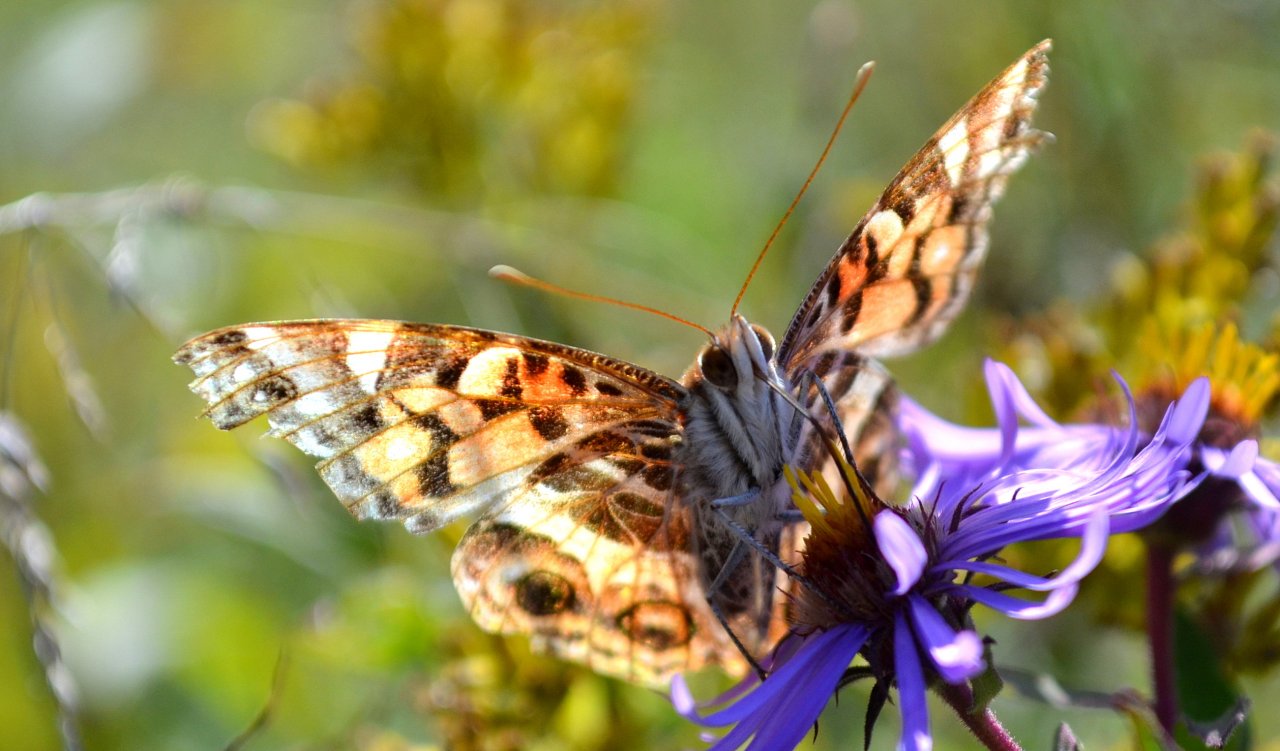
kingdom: Animalia
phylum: Arthropoda
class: Insecta
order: Lepidoptera
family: Nymphalidae
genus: Vanessa
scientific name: Vanessa virginiensis
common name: American Lady
